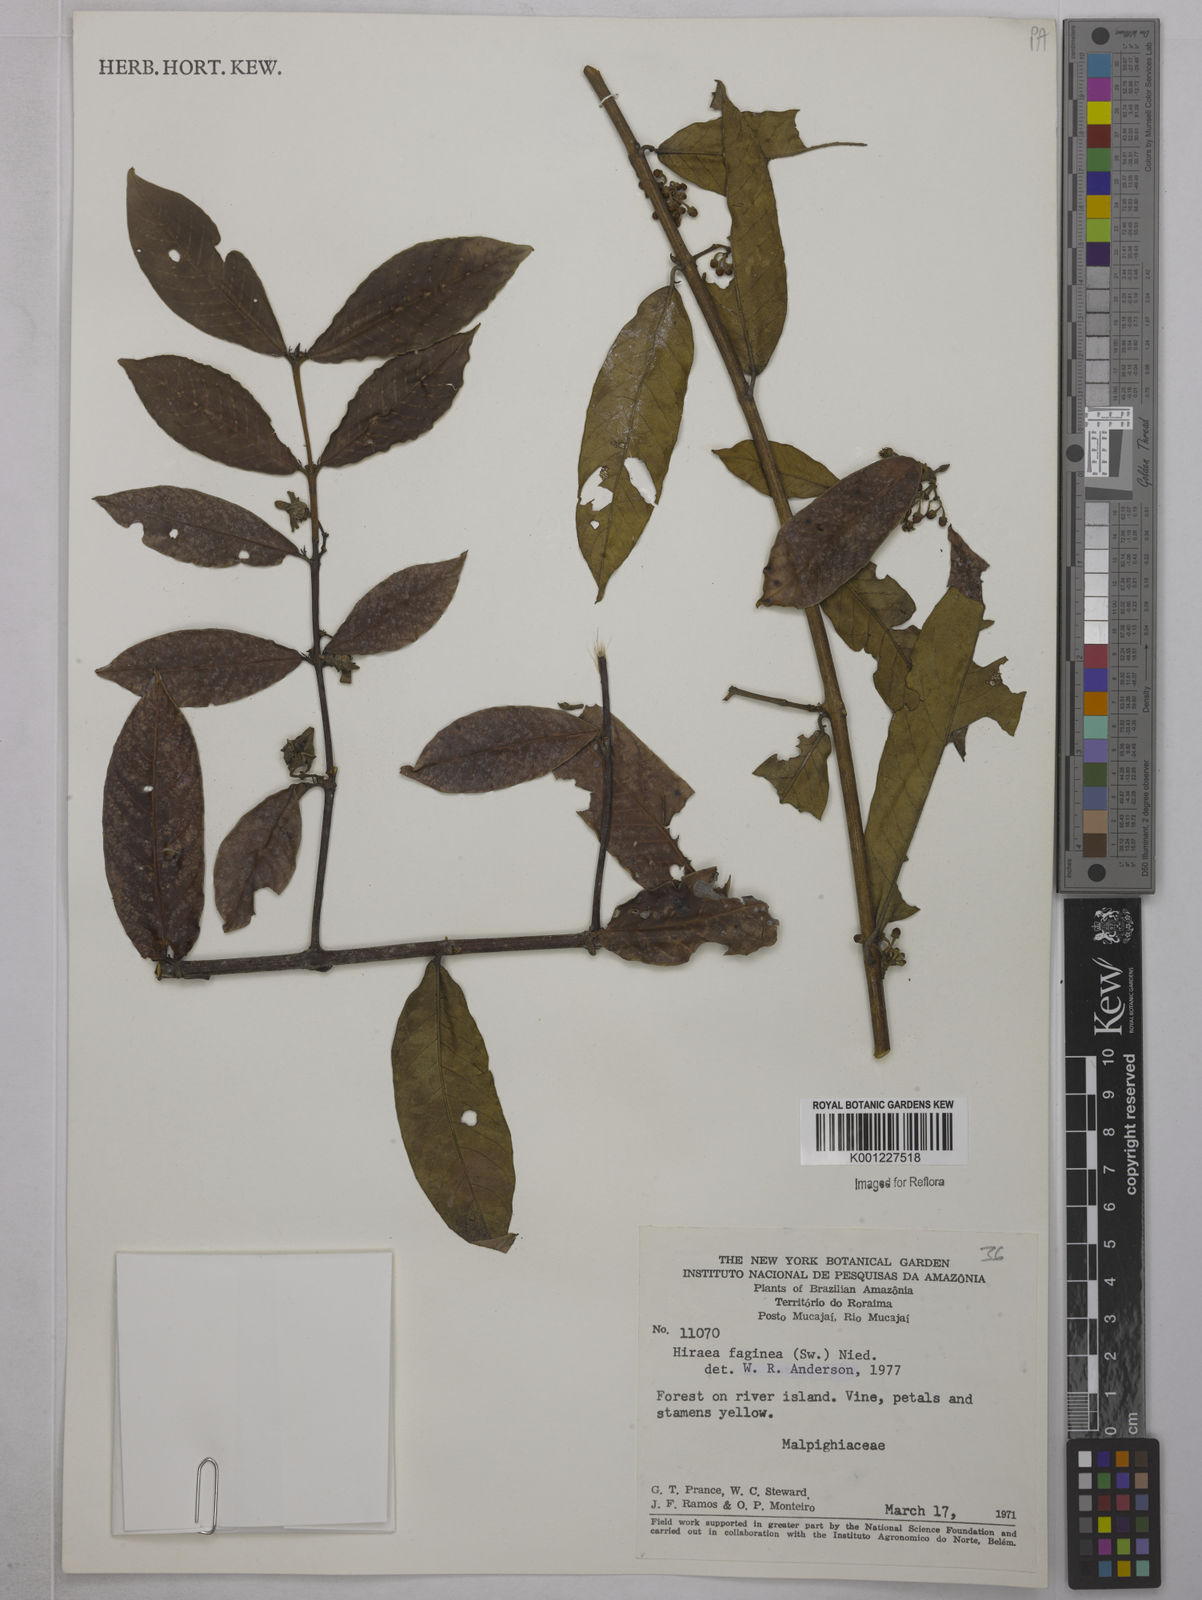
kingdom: Plantae
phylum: Tracheophyta
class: Magnoliopsida
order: Malpighiales
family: Malpighiaceae
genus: Hiraea
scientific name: Hiraea faginea
